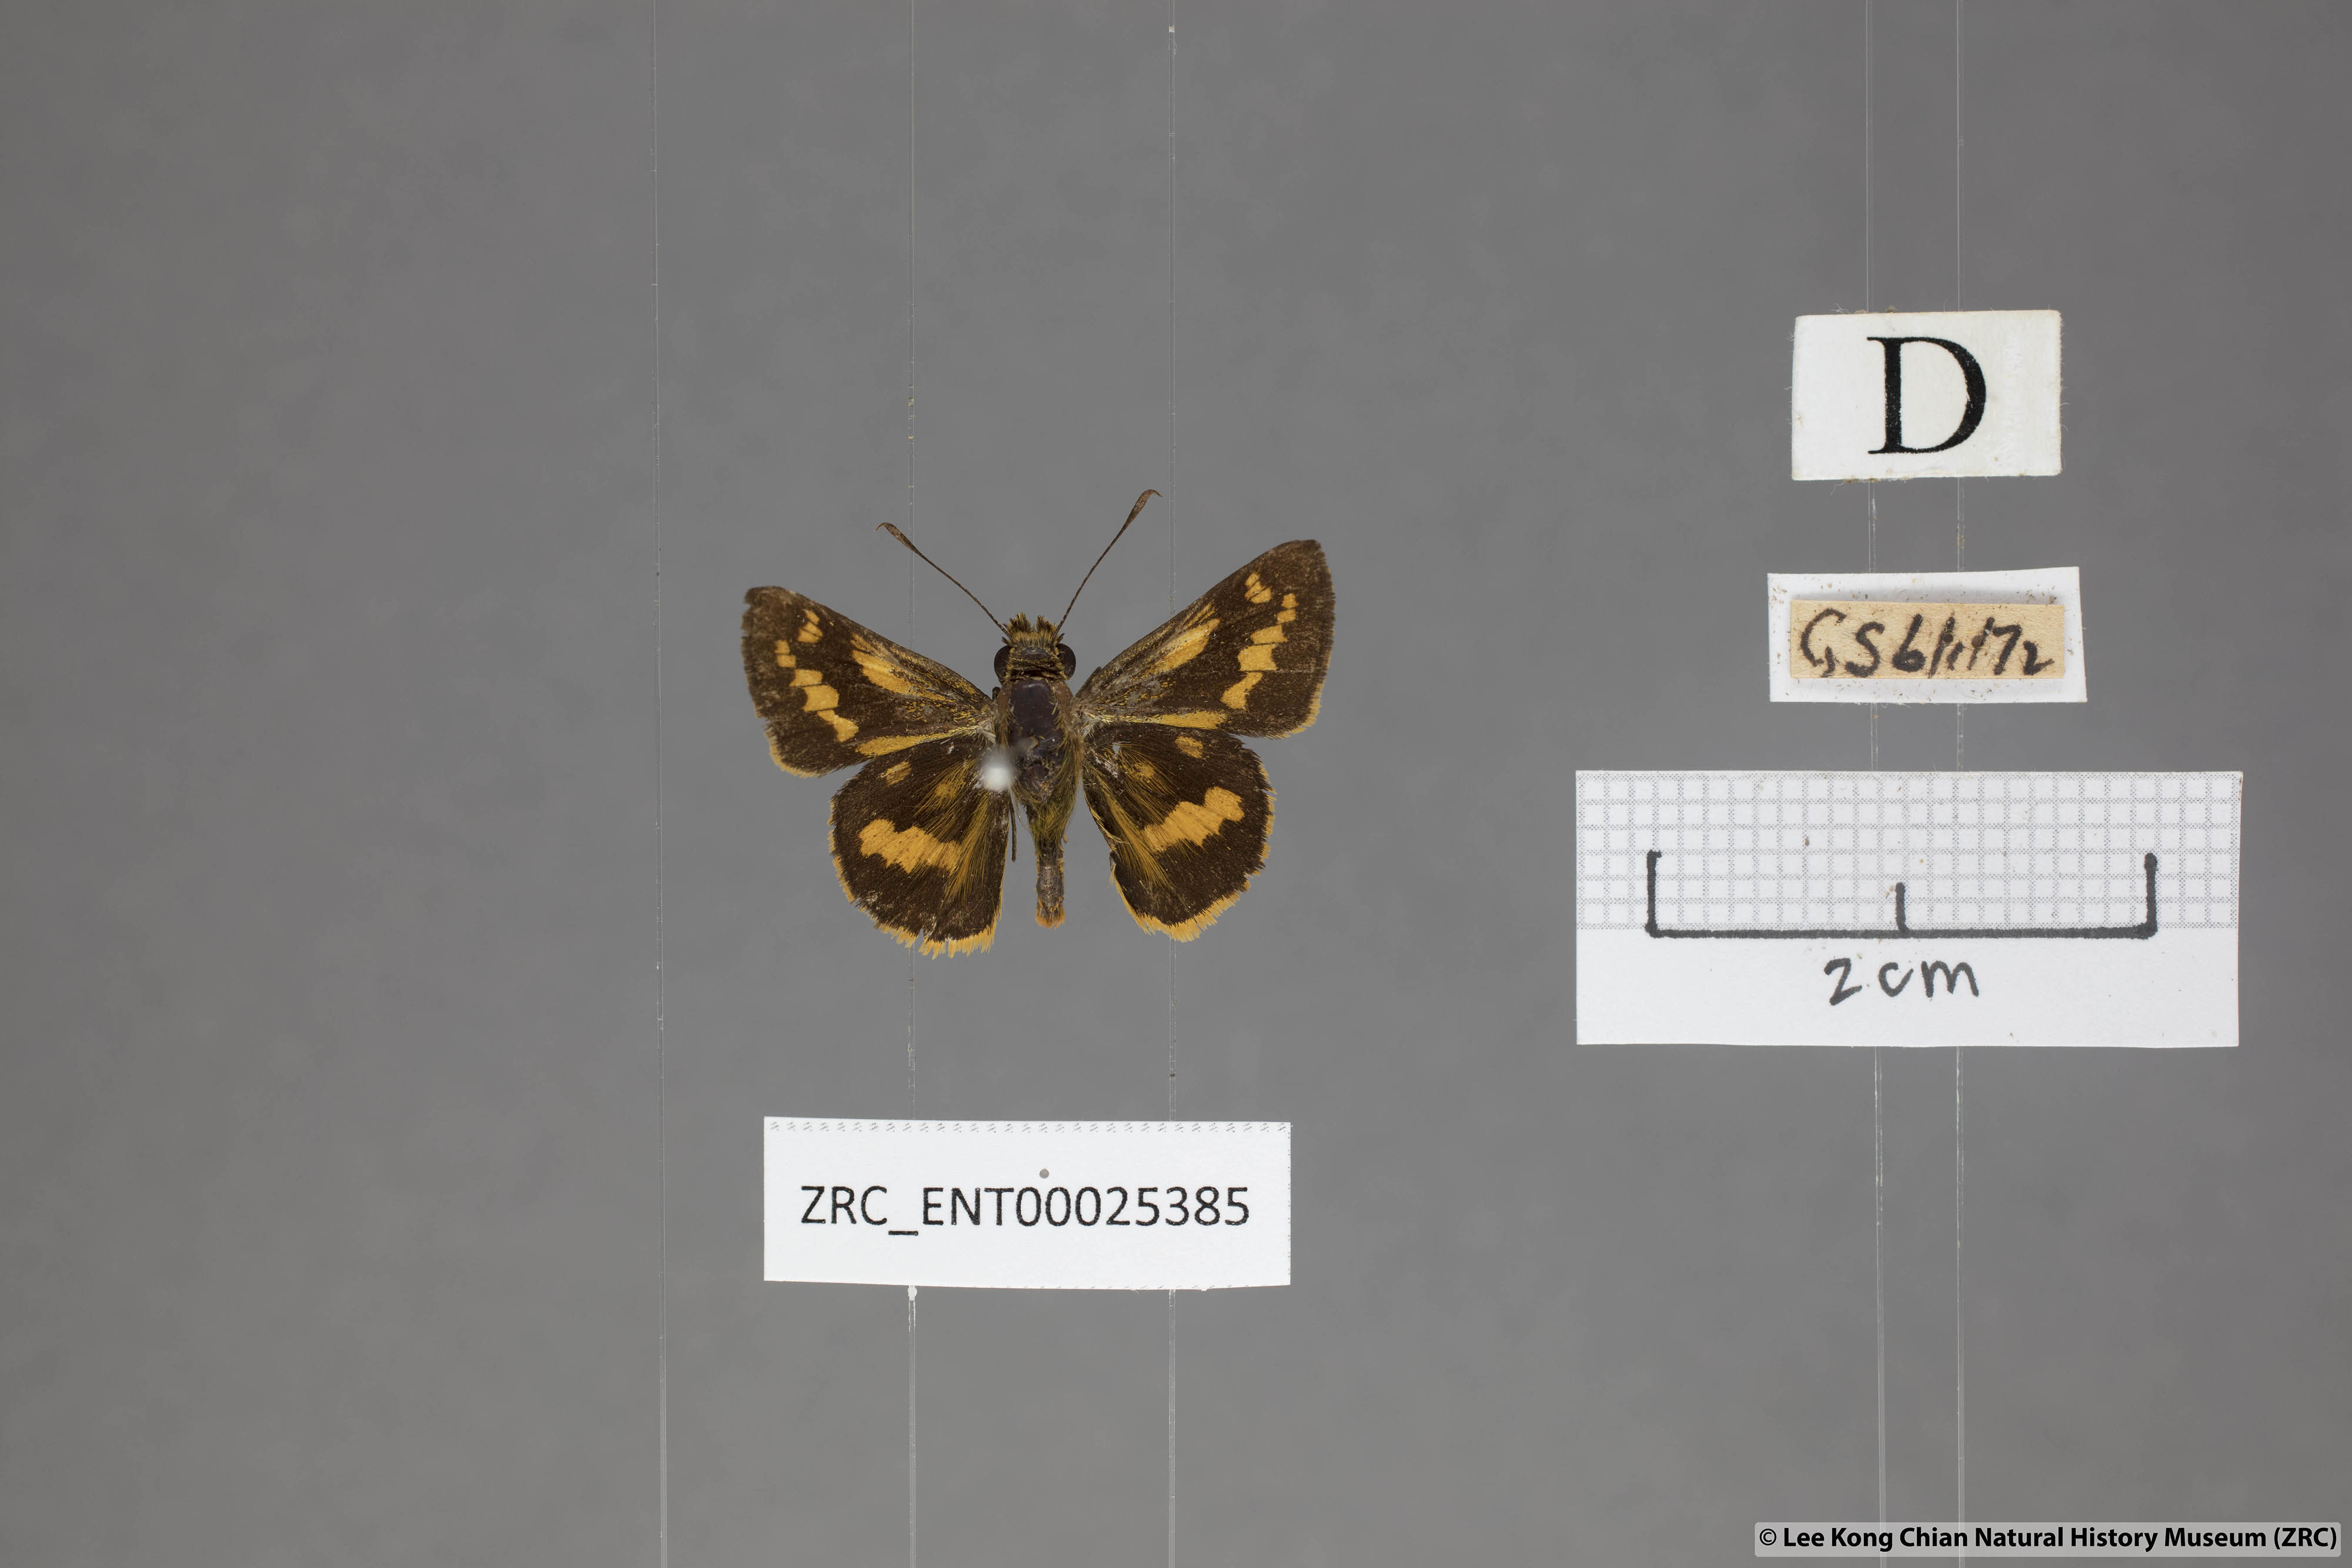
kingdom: Animalia
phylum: Arthropoda
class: Insecta
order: Lepidoptera
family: Hesperiidae
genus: Potanthus
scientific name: Potanthus ganda
